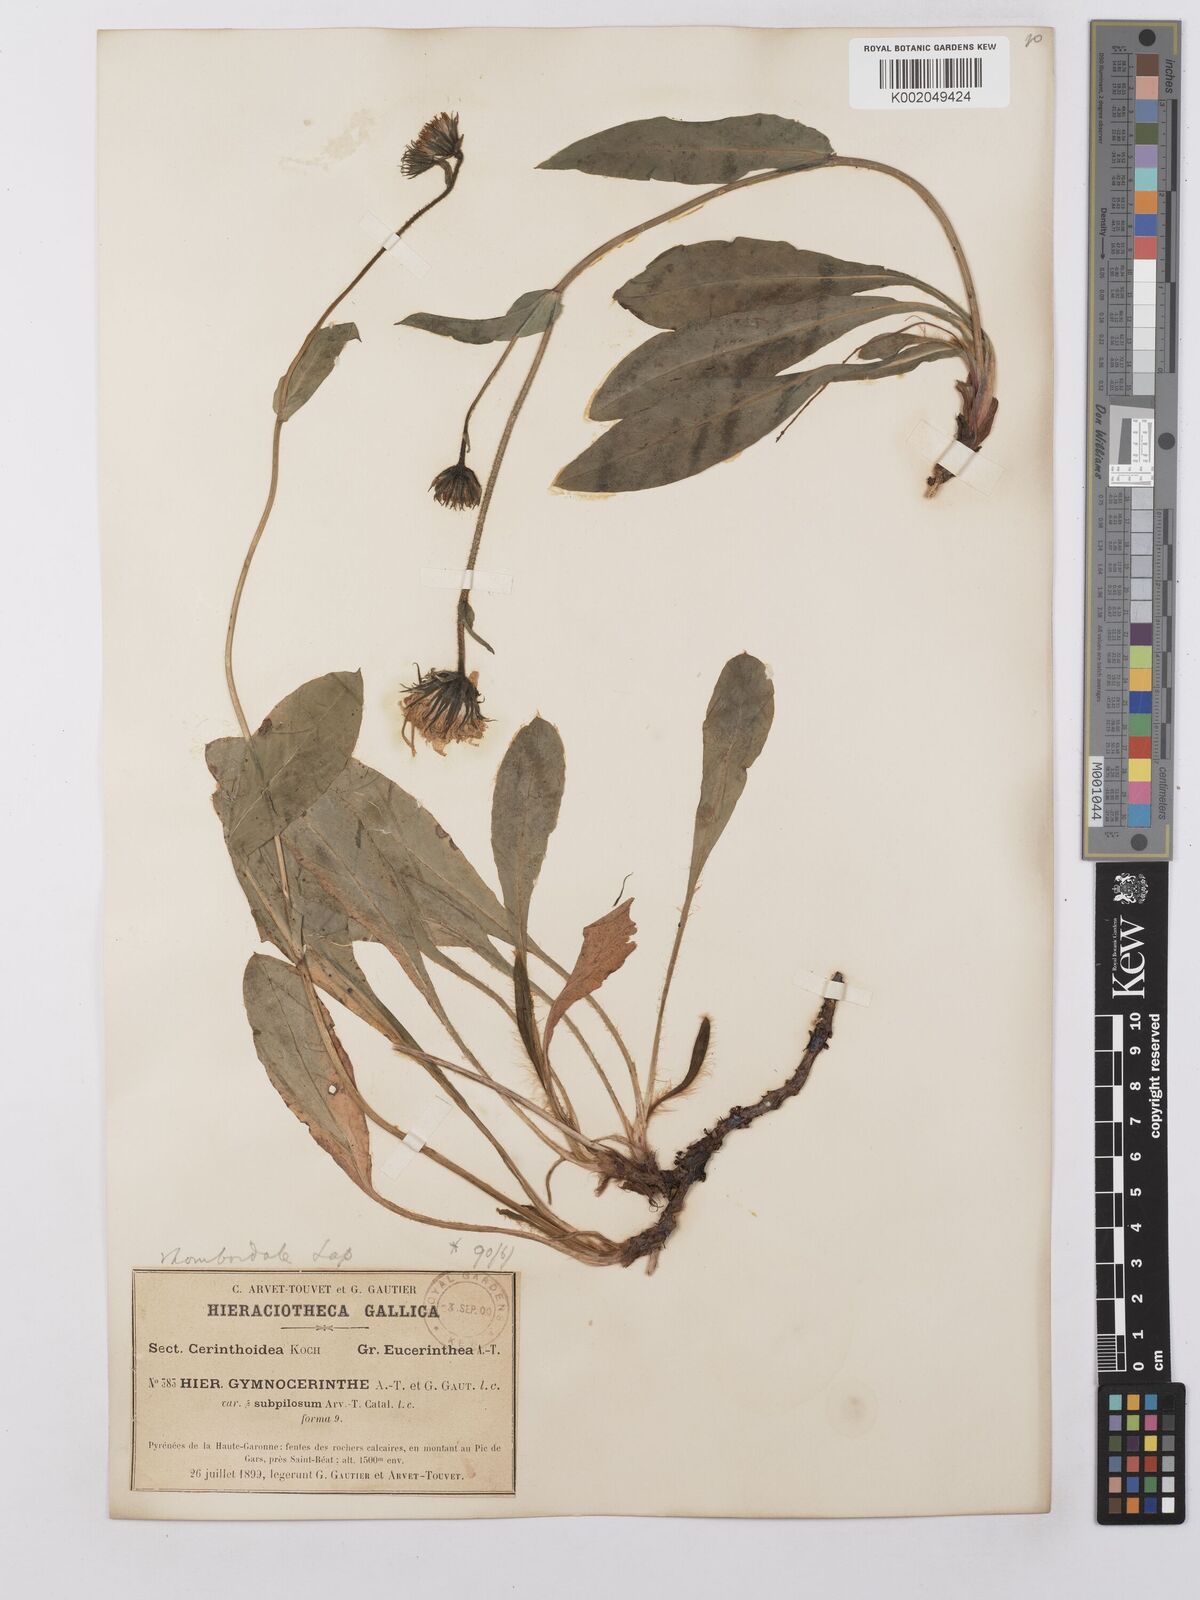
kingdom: Plantae
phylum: Tracheophyta
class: Magnoliopsida
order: Asterales
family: Asteraceae
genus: Hieracium
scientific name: Hieracium cerinthoides
